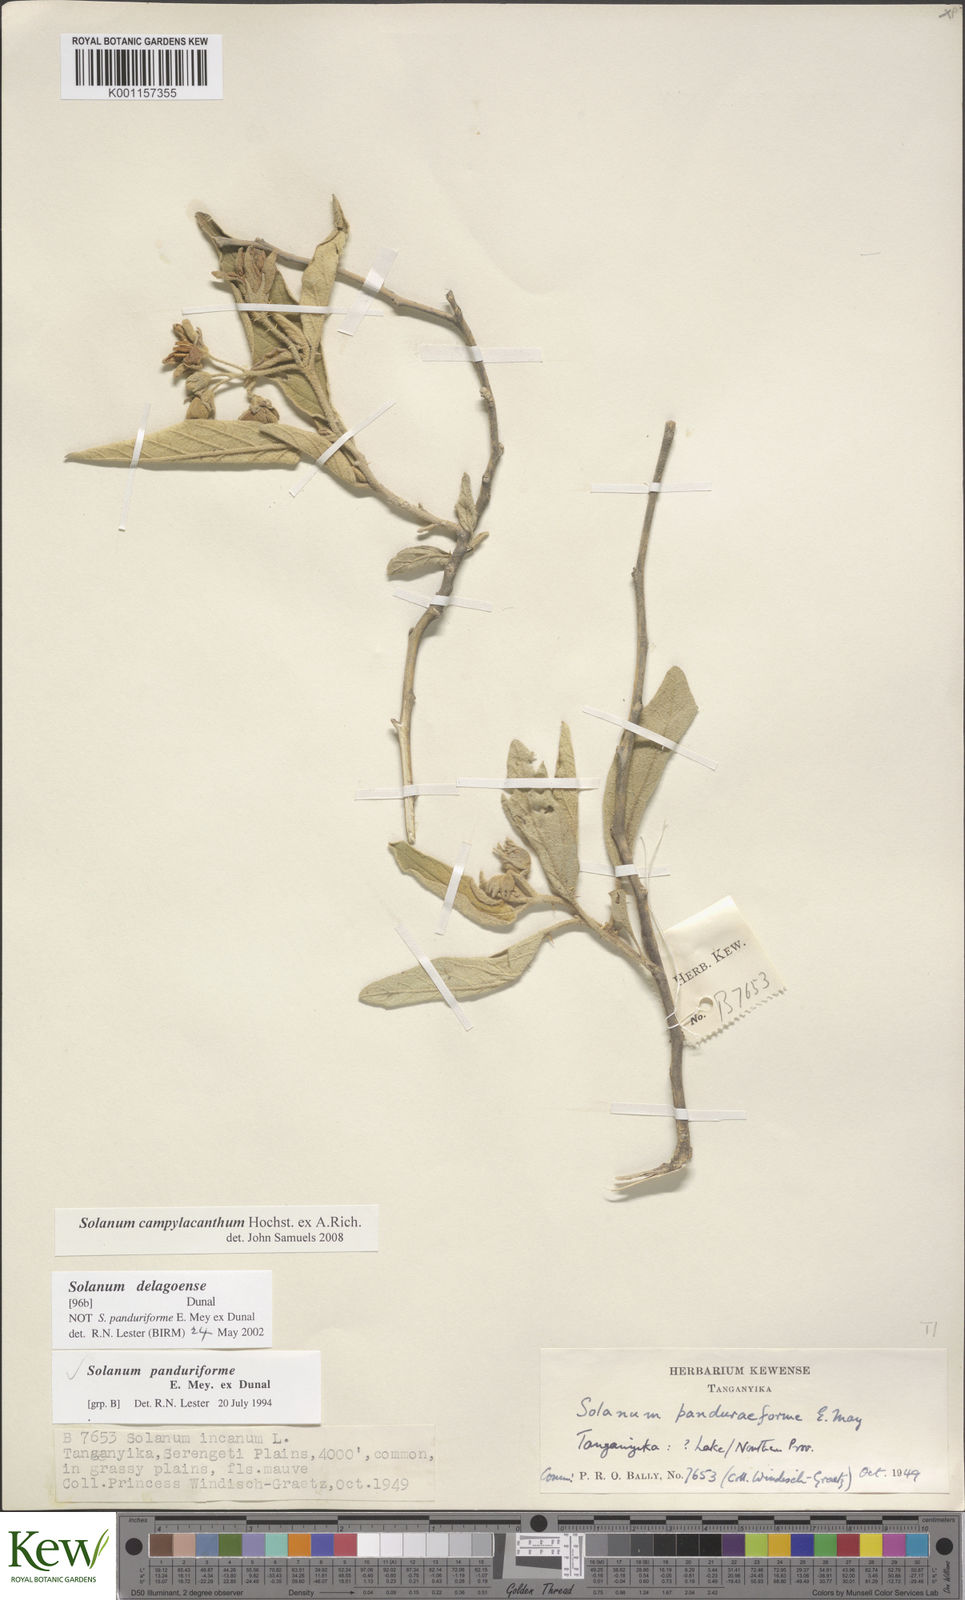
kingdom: Plantae
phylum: Tracheophyta
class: Magnoliopsida
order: Solanales
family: Solanaceae
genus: Solanum
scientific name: Solanum campylacanthum
